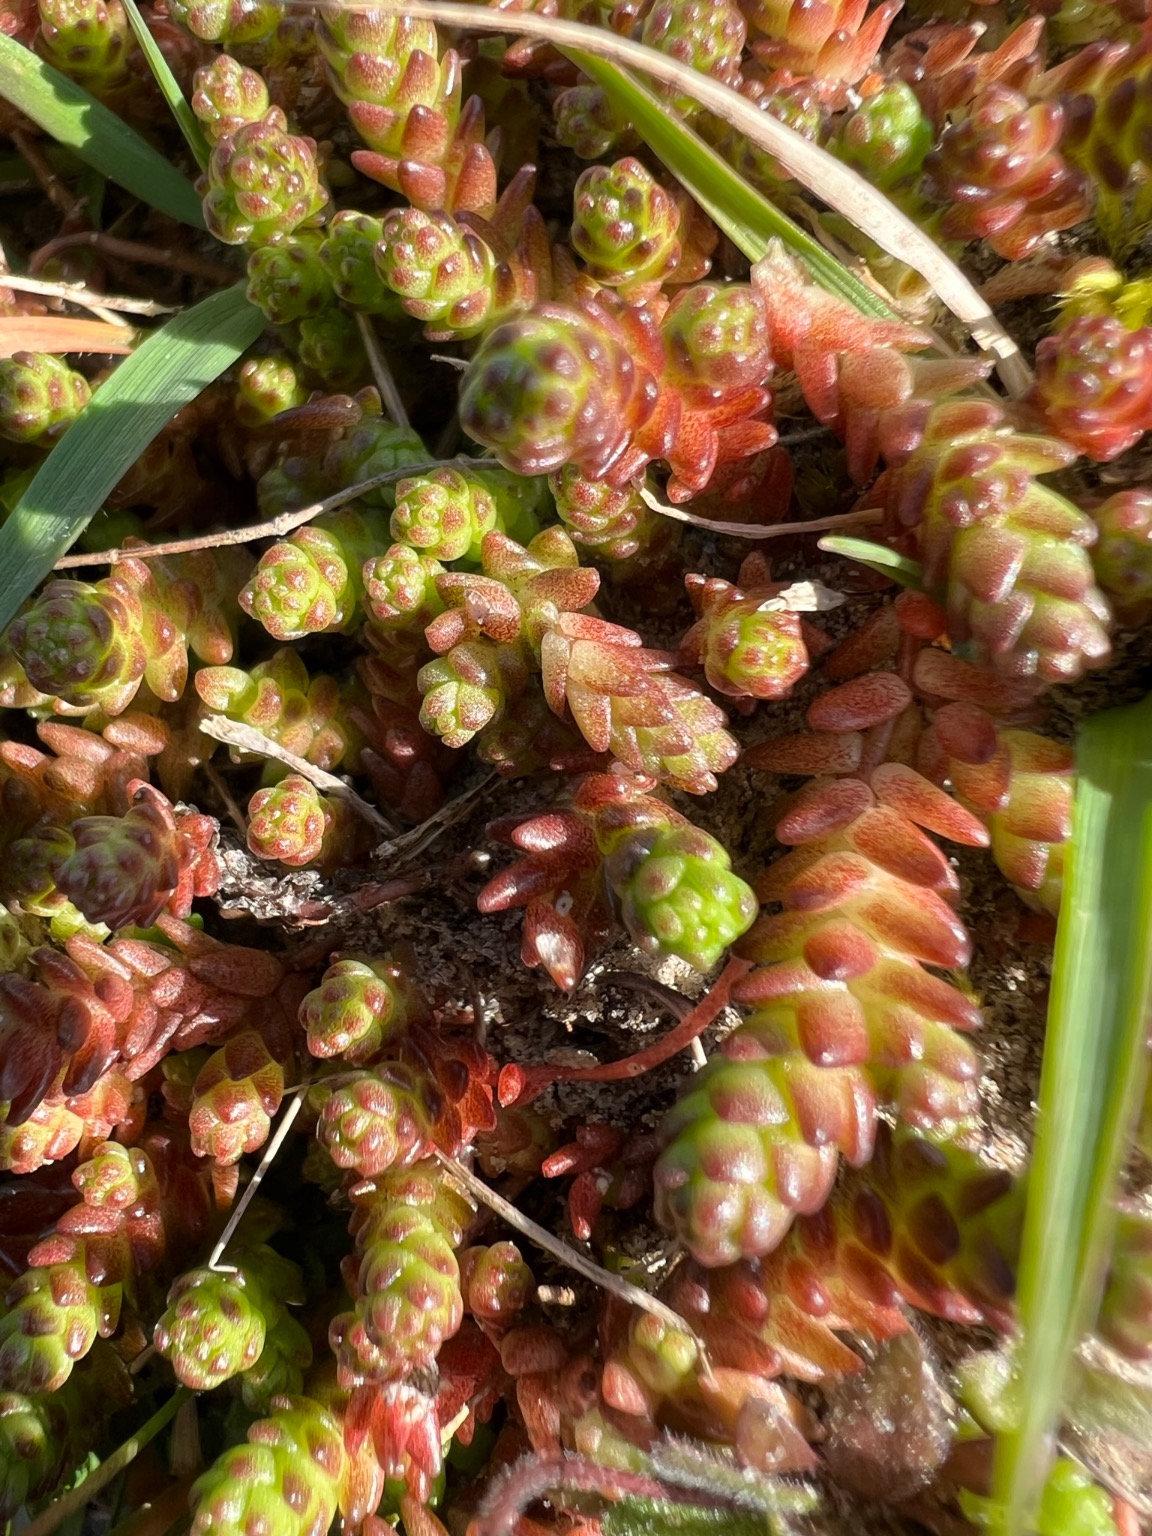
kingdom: Plantae
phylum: Tracheophyta
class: Magnoliopsida
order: Saxifragales
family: Crassulaceae
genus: Sedum
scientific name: Sedum acre
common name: Bidende stenurt
